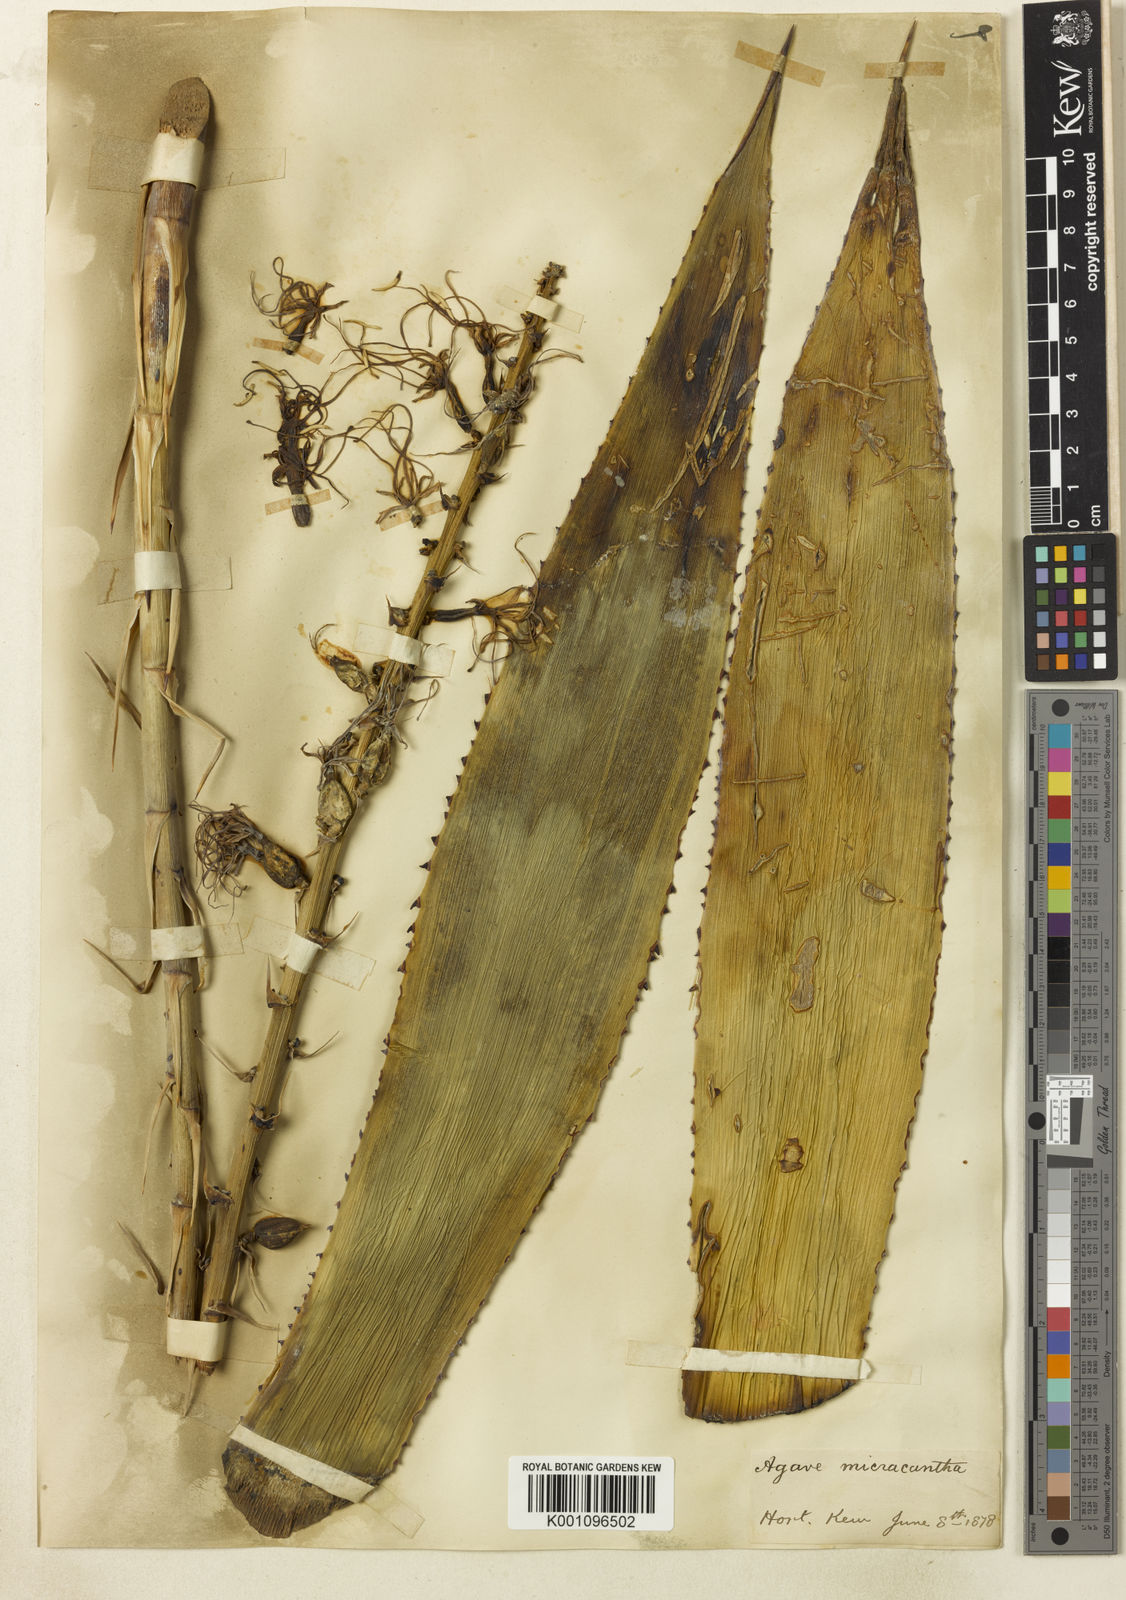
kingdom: Plantae
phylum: Tracheophyta
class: Liliopsida
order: Asparagales
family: Asparagaceae
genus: Agave
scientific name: Agave mitis
